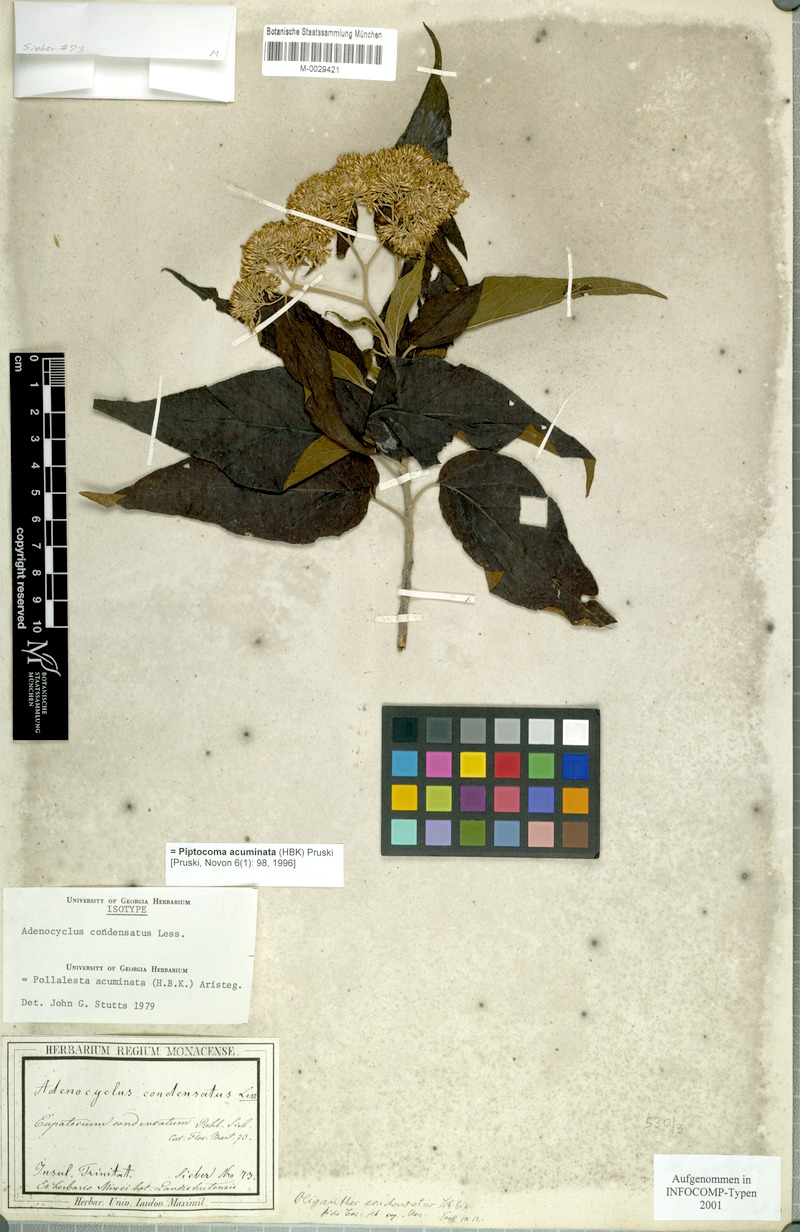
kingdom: Plantae
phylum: Tracheophyta
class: Magnoliopsida
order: Asterales
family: Asteraceae
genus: Piptocoma
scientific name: Piptocoma acuminata
